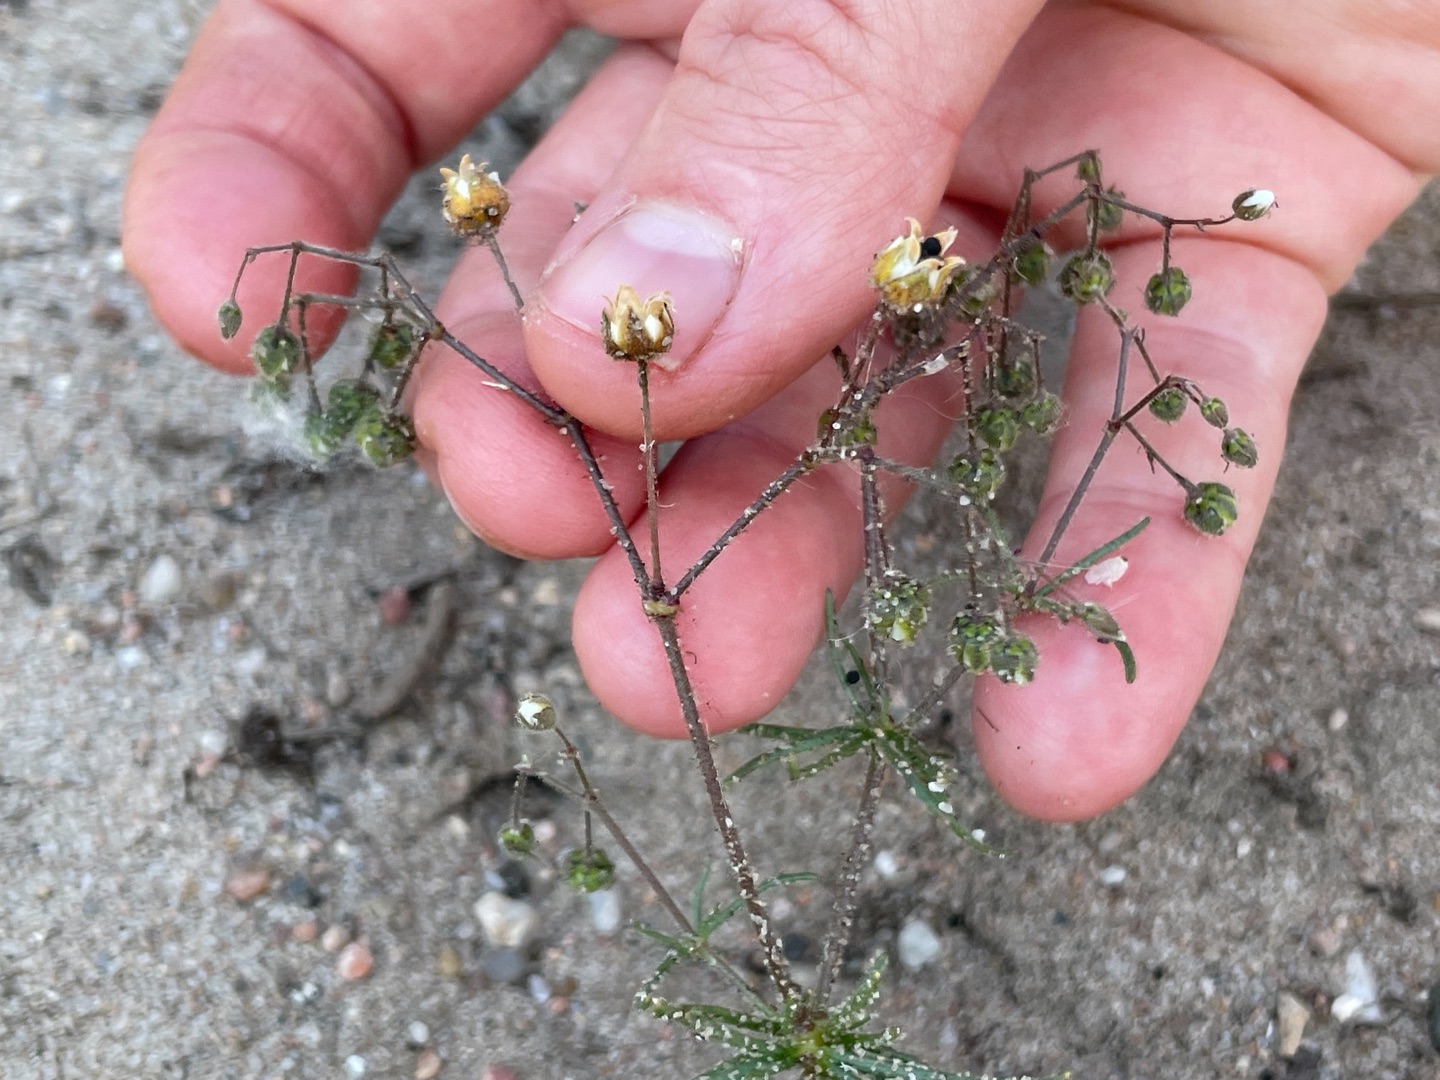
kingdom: Plantae
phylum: Tracheophyta
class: Magnoliopsida
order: Caryophyllales
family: Caryophyllaceae
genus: Spergula
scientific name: Spergula arvensis
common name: Foder-spergel
